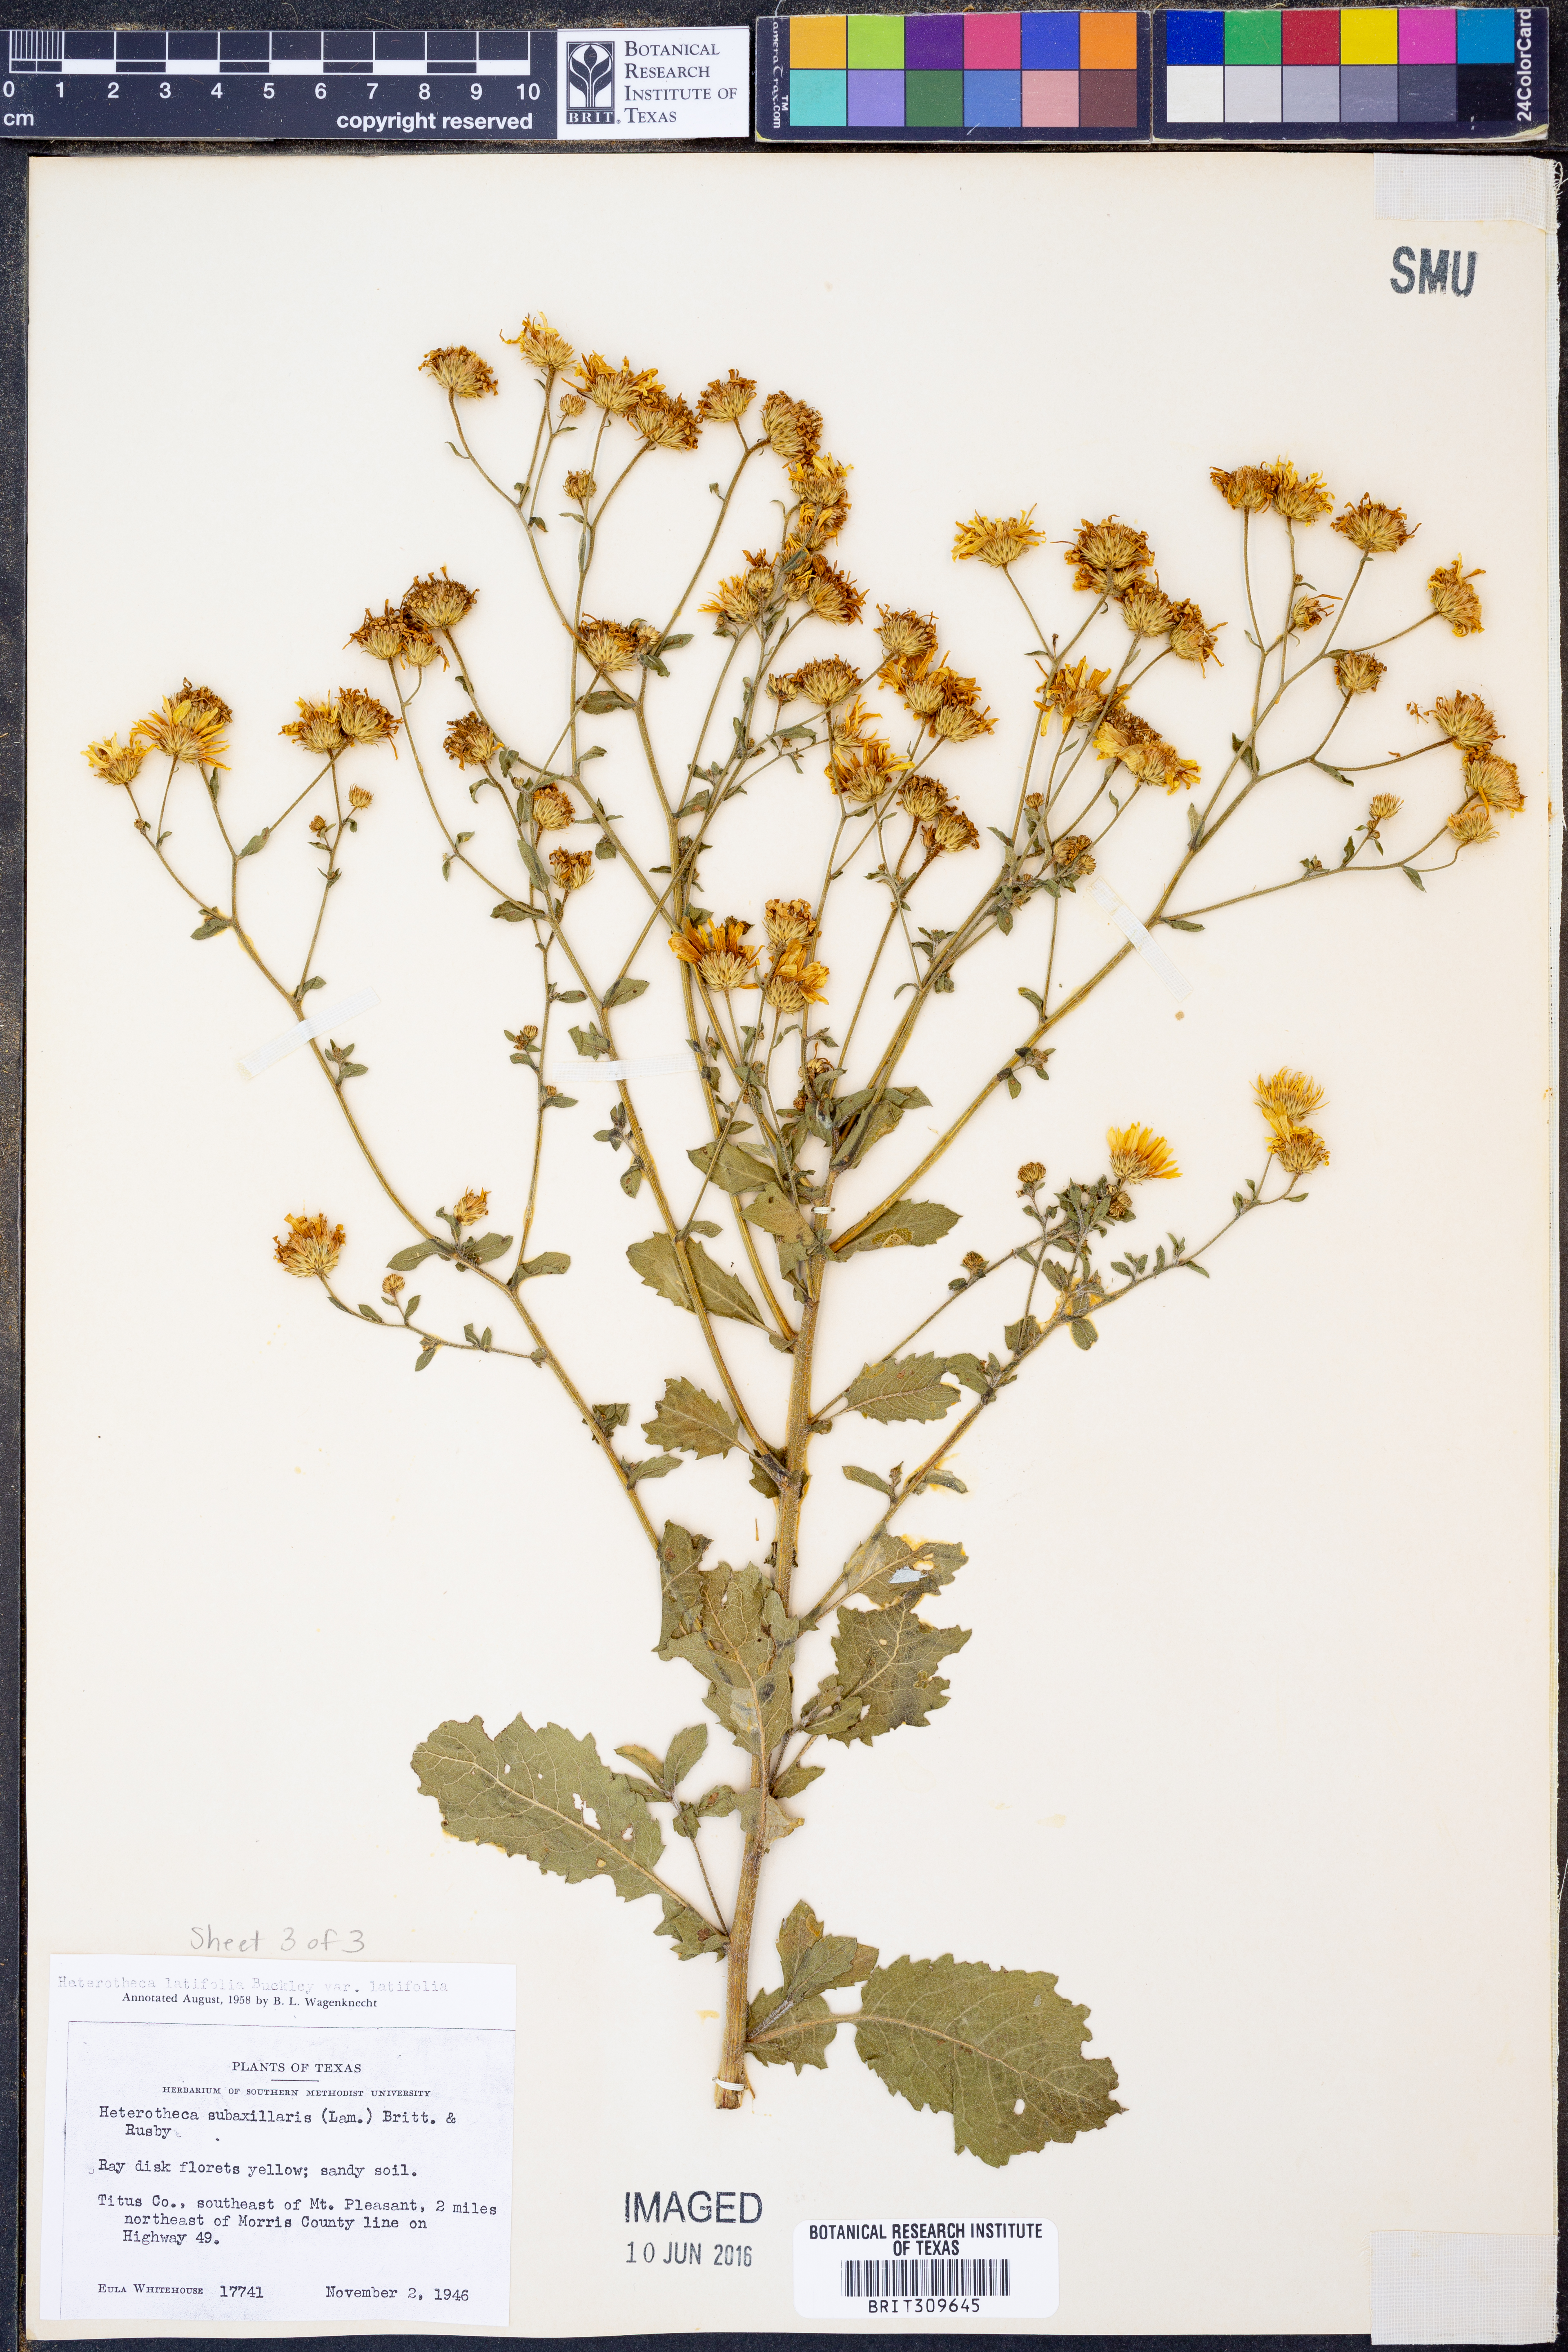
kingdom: Plantae
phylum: Tracheophyta
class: Magnoliopsida
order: Asterales
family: Asteraceae
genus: Heterotheca
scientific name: Heterotheca subaxillaris
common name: Camphorweed
